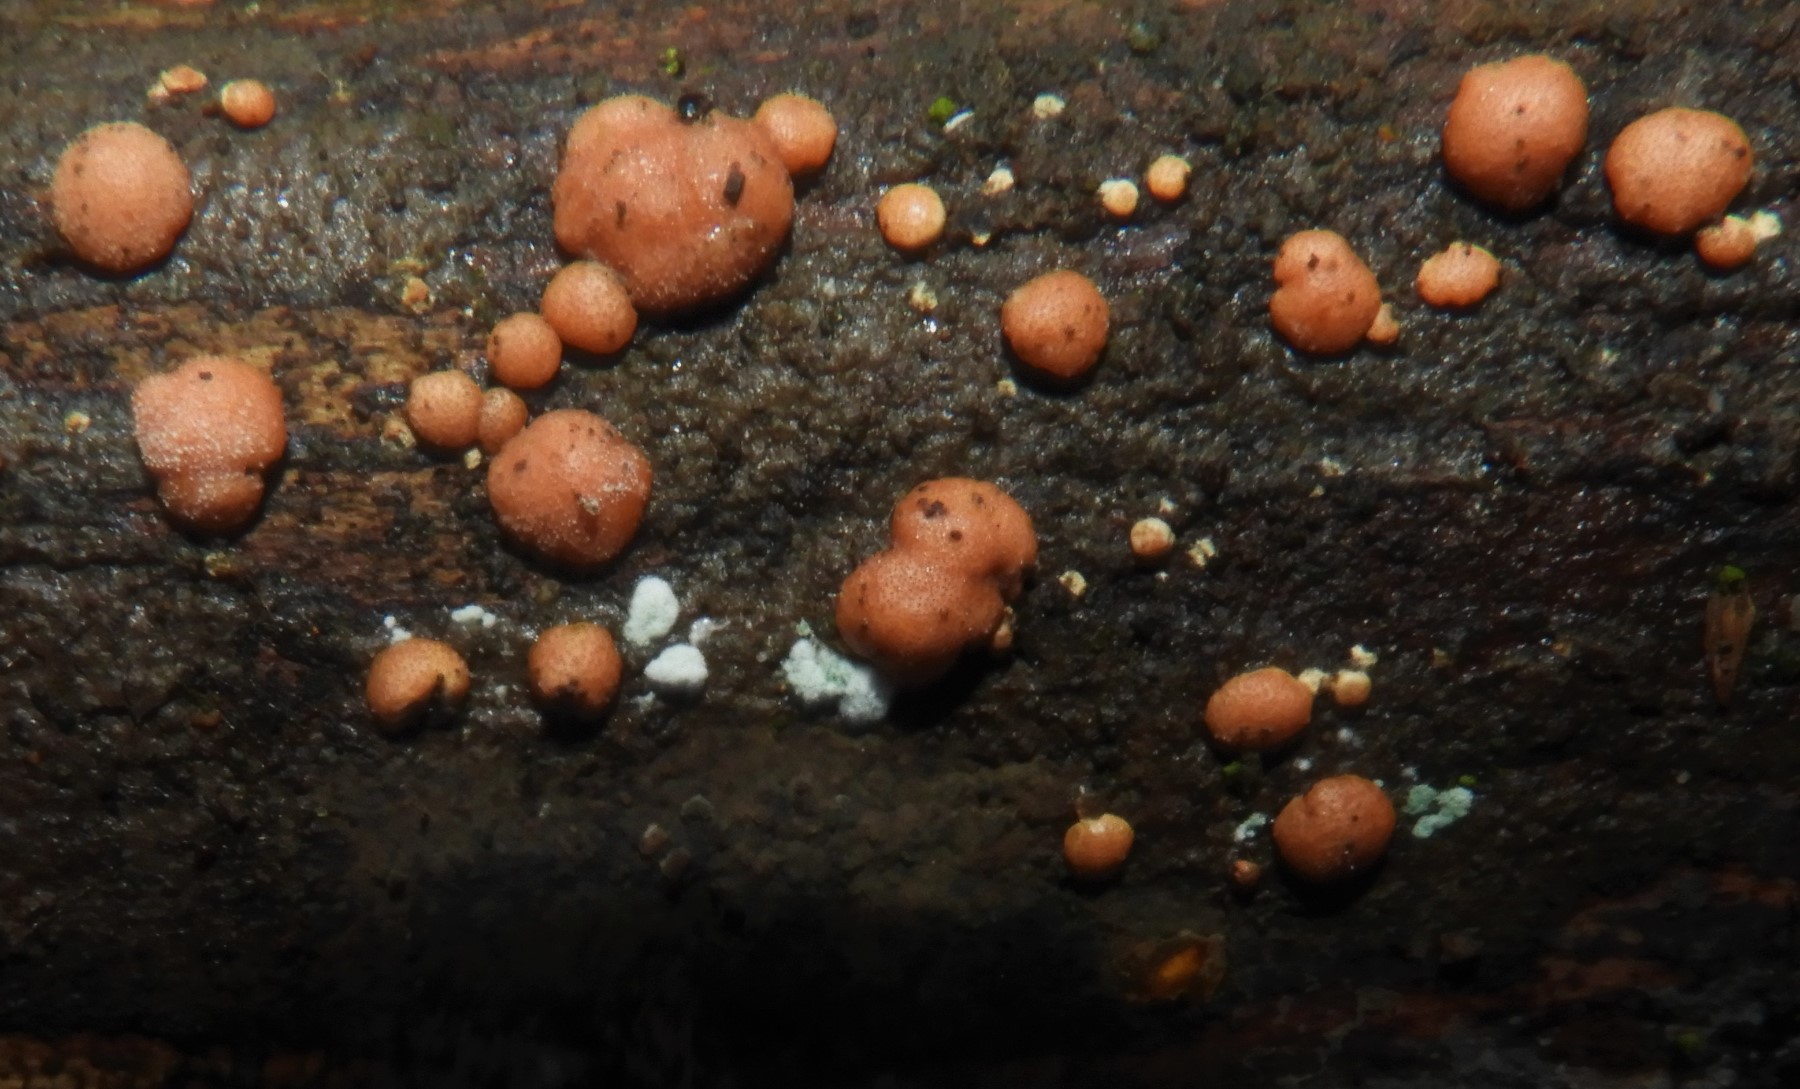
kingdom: Fungi
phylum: Ascomycota
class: Sordariomycetes
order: Hypocreales
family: Hypocreaceae
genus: Trichoderma
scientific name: Trichoderma europaeum
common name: rosabrun kødkerne
